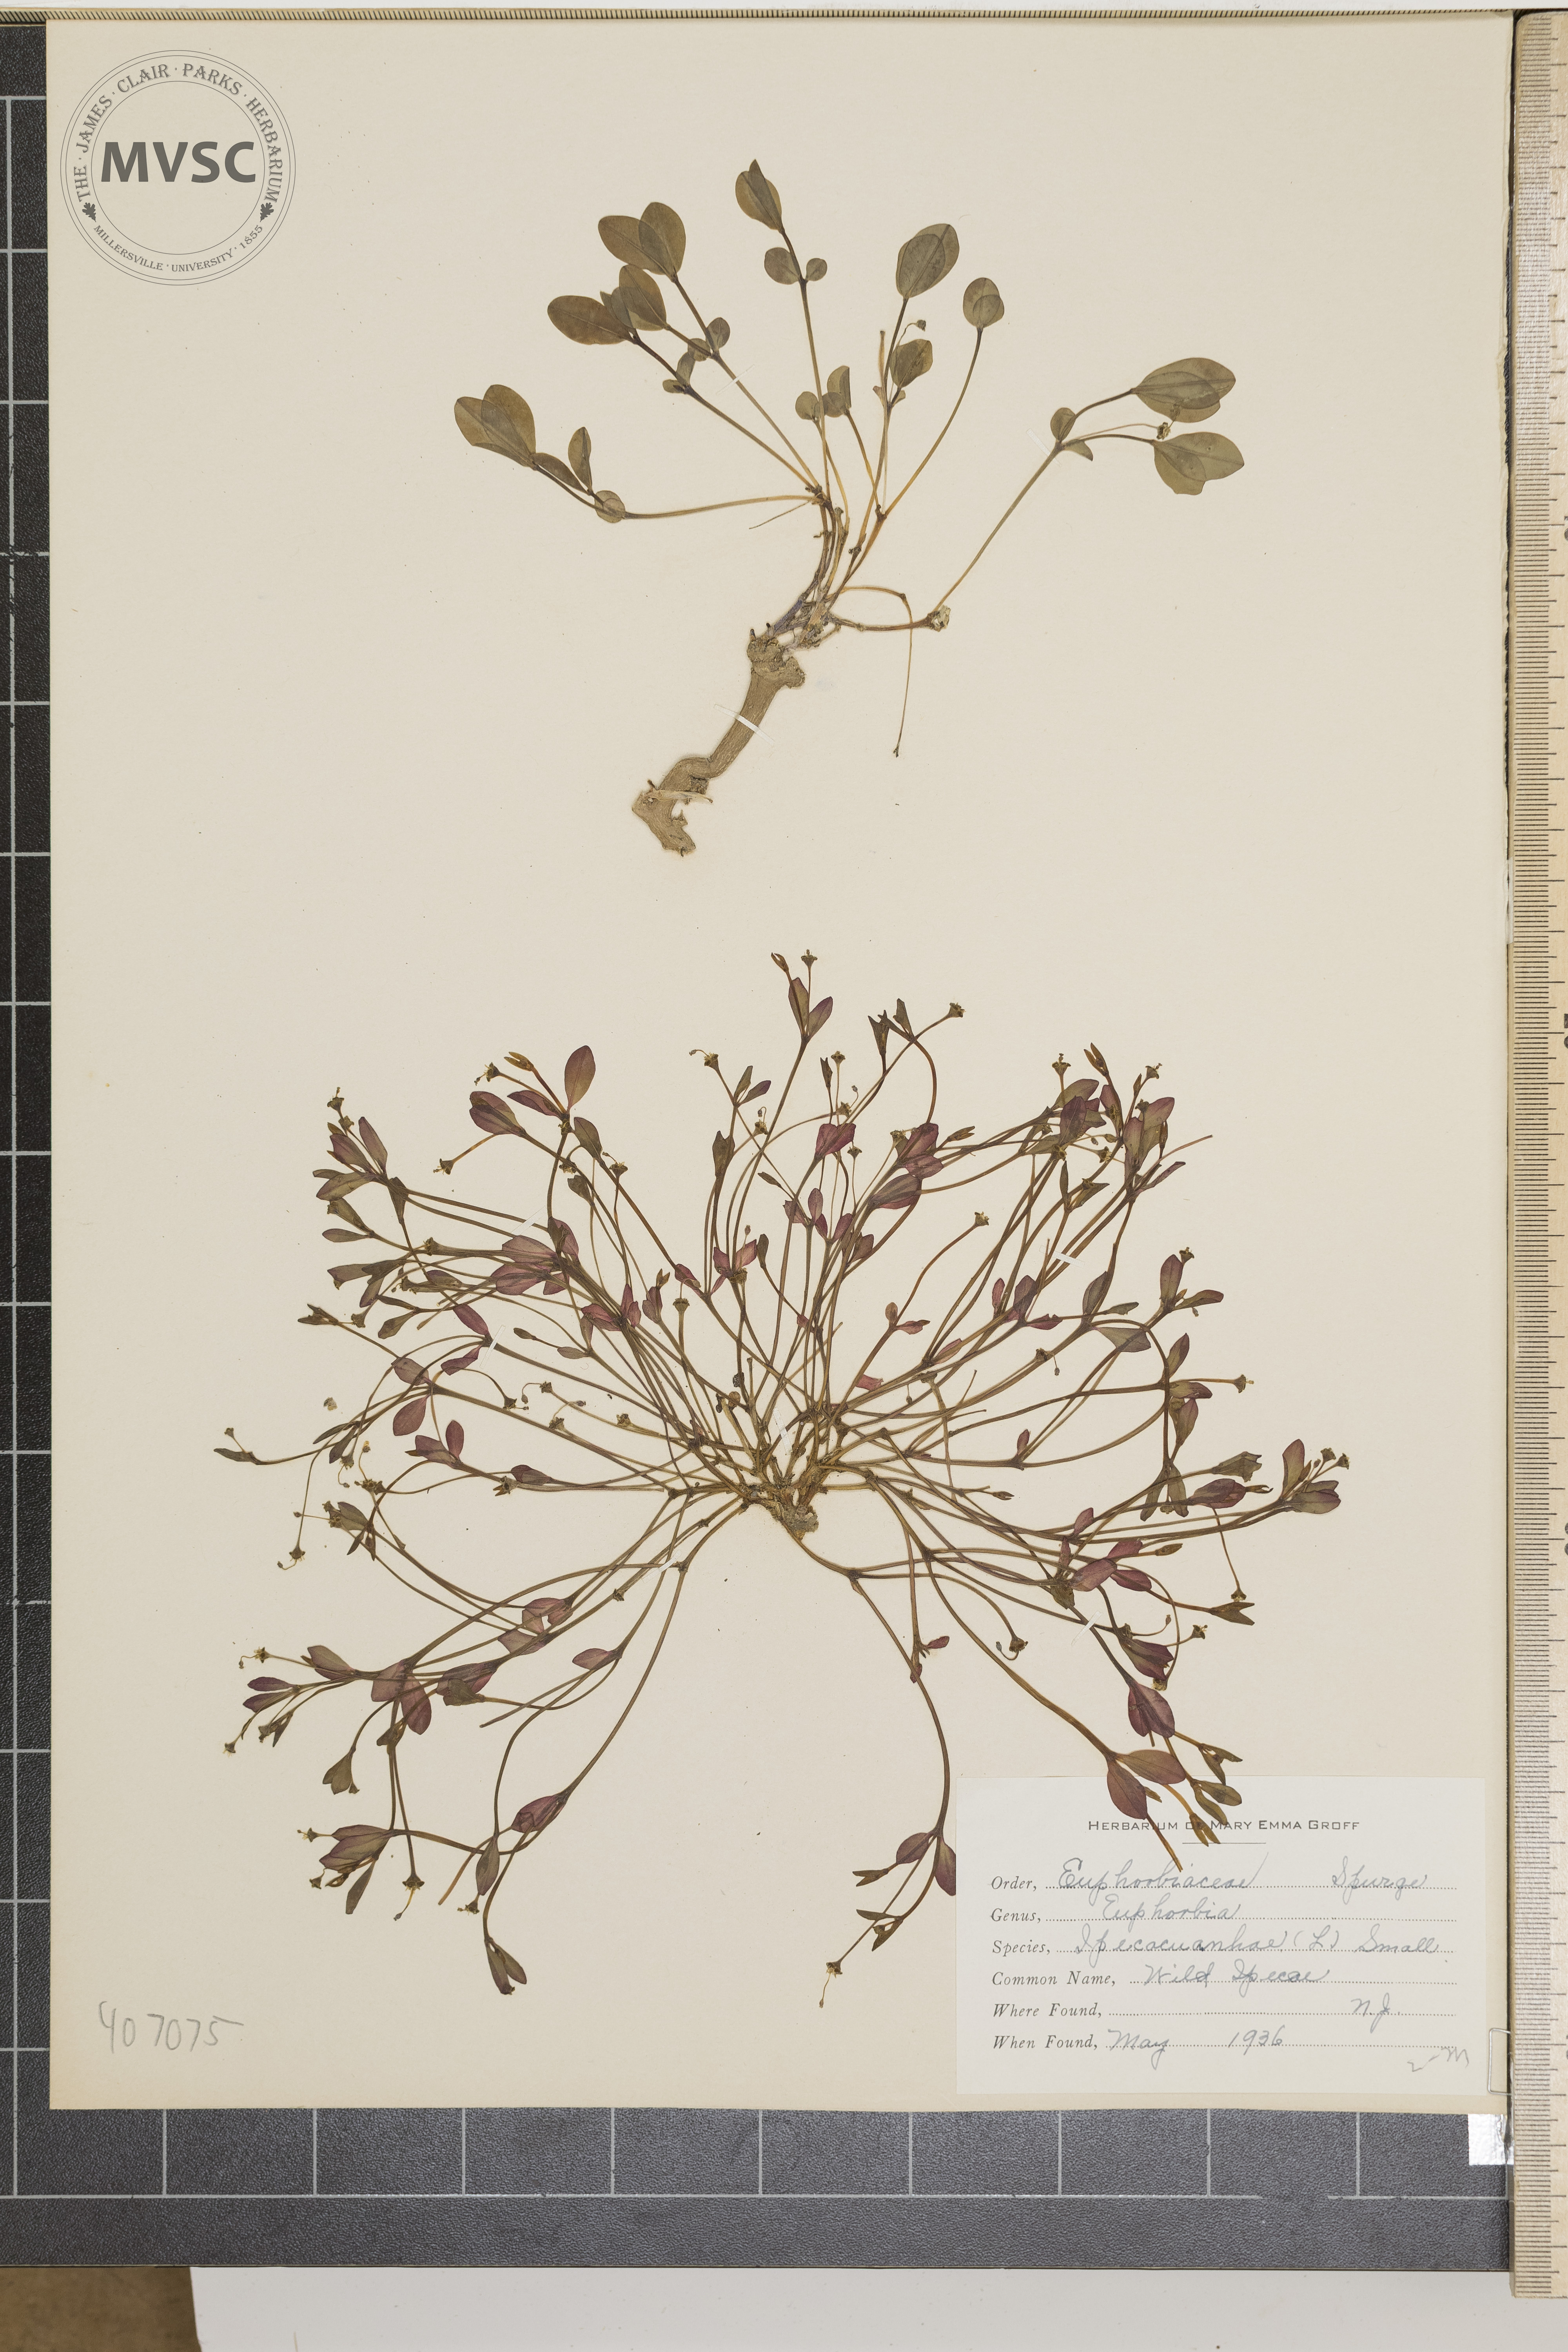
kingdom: Plantae
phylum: Tracheophyta
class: Magnoliopsida
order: Malpighiales
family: Euphorbiaceae
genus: Euphorbia
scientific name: Euphorbia ipecacuanhae
